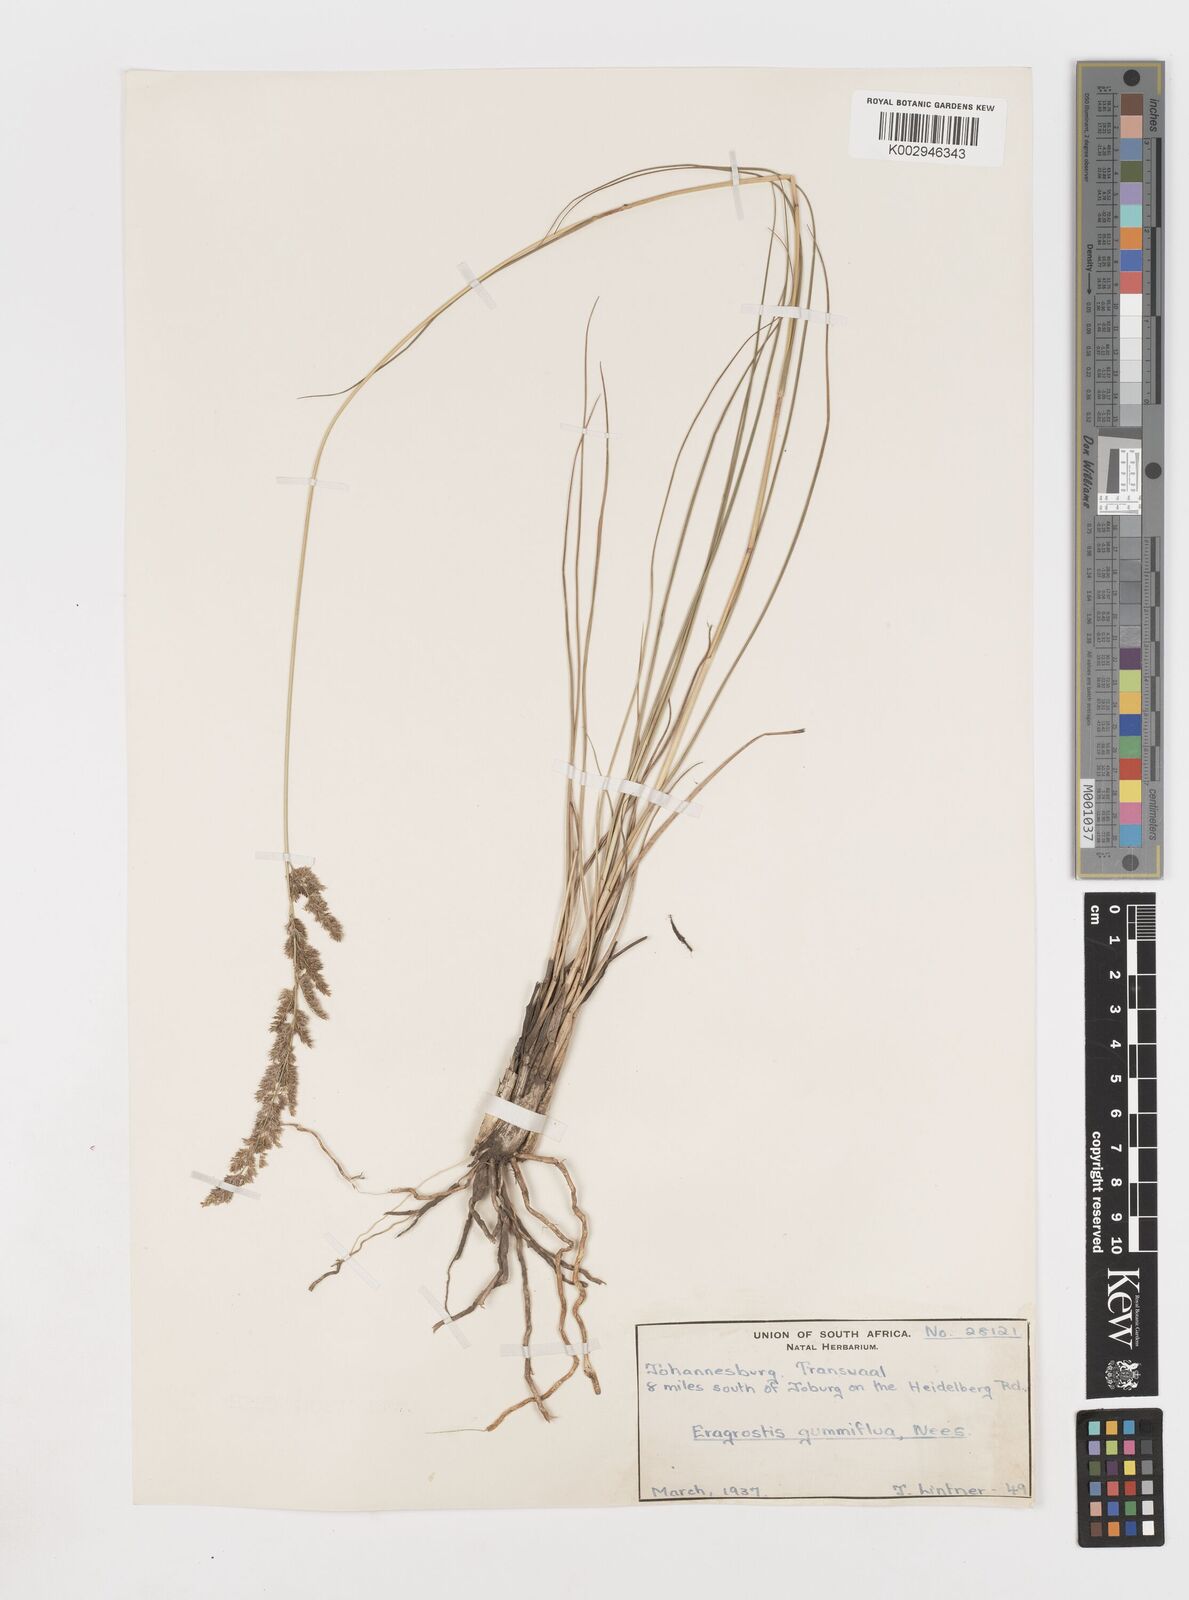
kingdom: Plantae
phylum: Tracheophyta
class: Liliopsida
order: Poales
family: Poaceae
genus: Eragrostis
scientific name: Eragrostis gummiflua
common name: Gum grass
